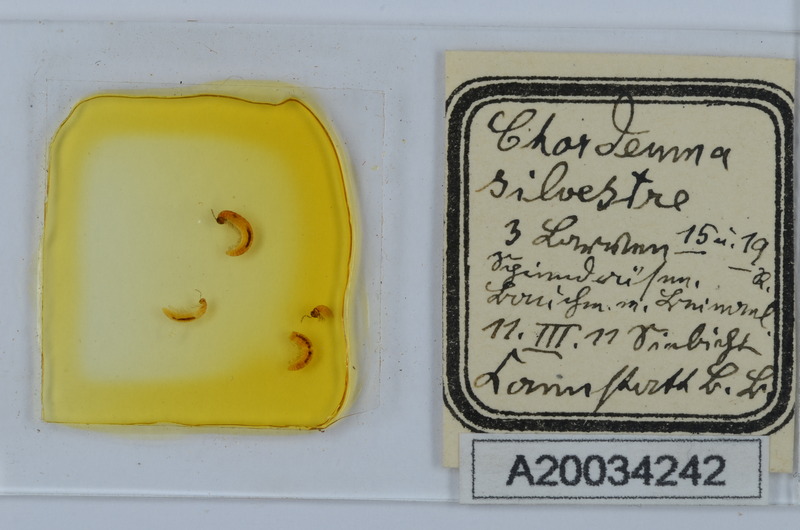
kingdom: Animalia
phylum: Arthropoda
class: Diplopoda
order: Chordeumatida
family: Chordeumatidae
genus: Chordeuma
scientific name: Chordeuma sylvestre
